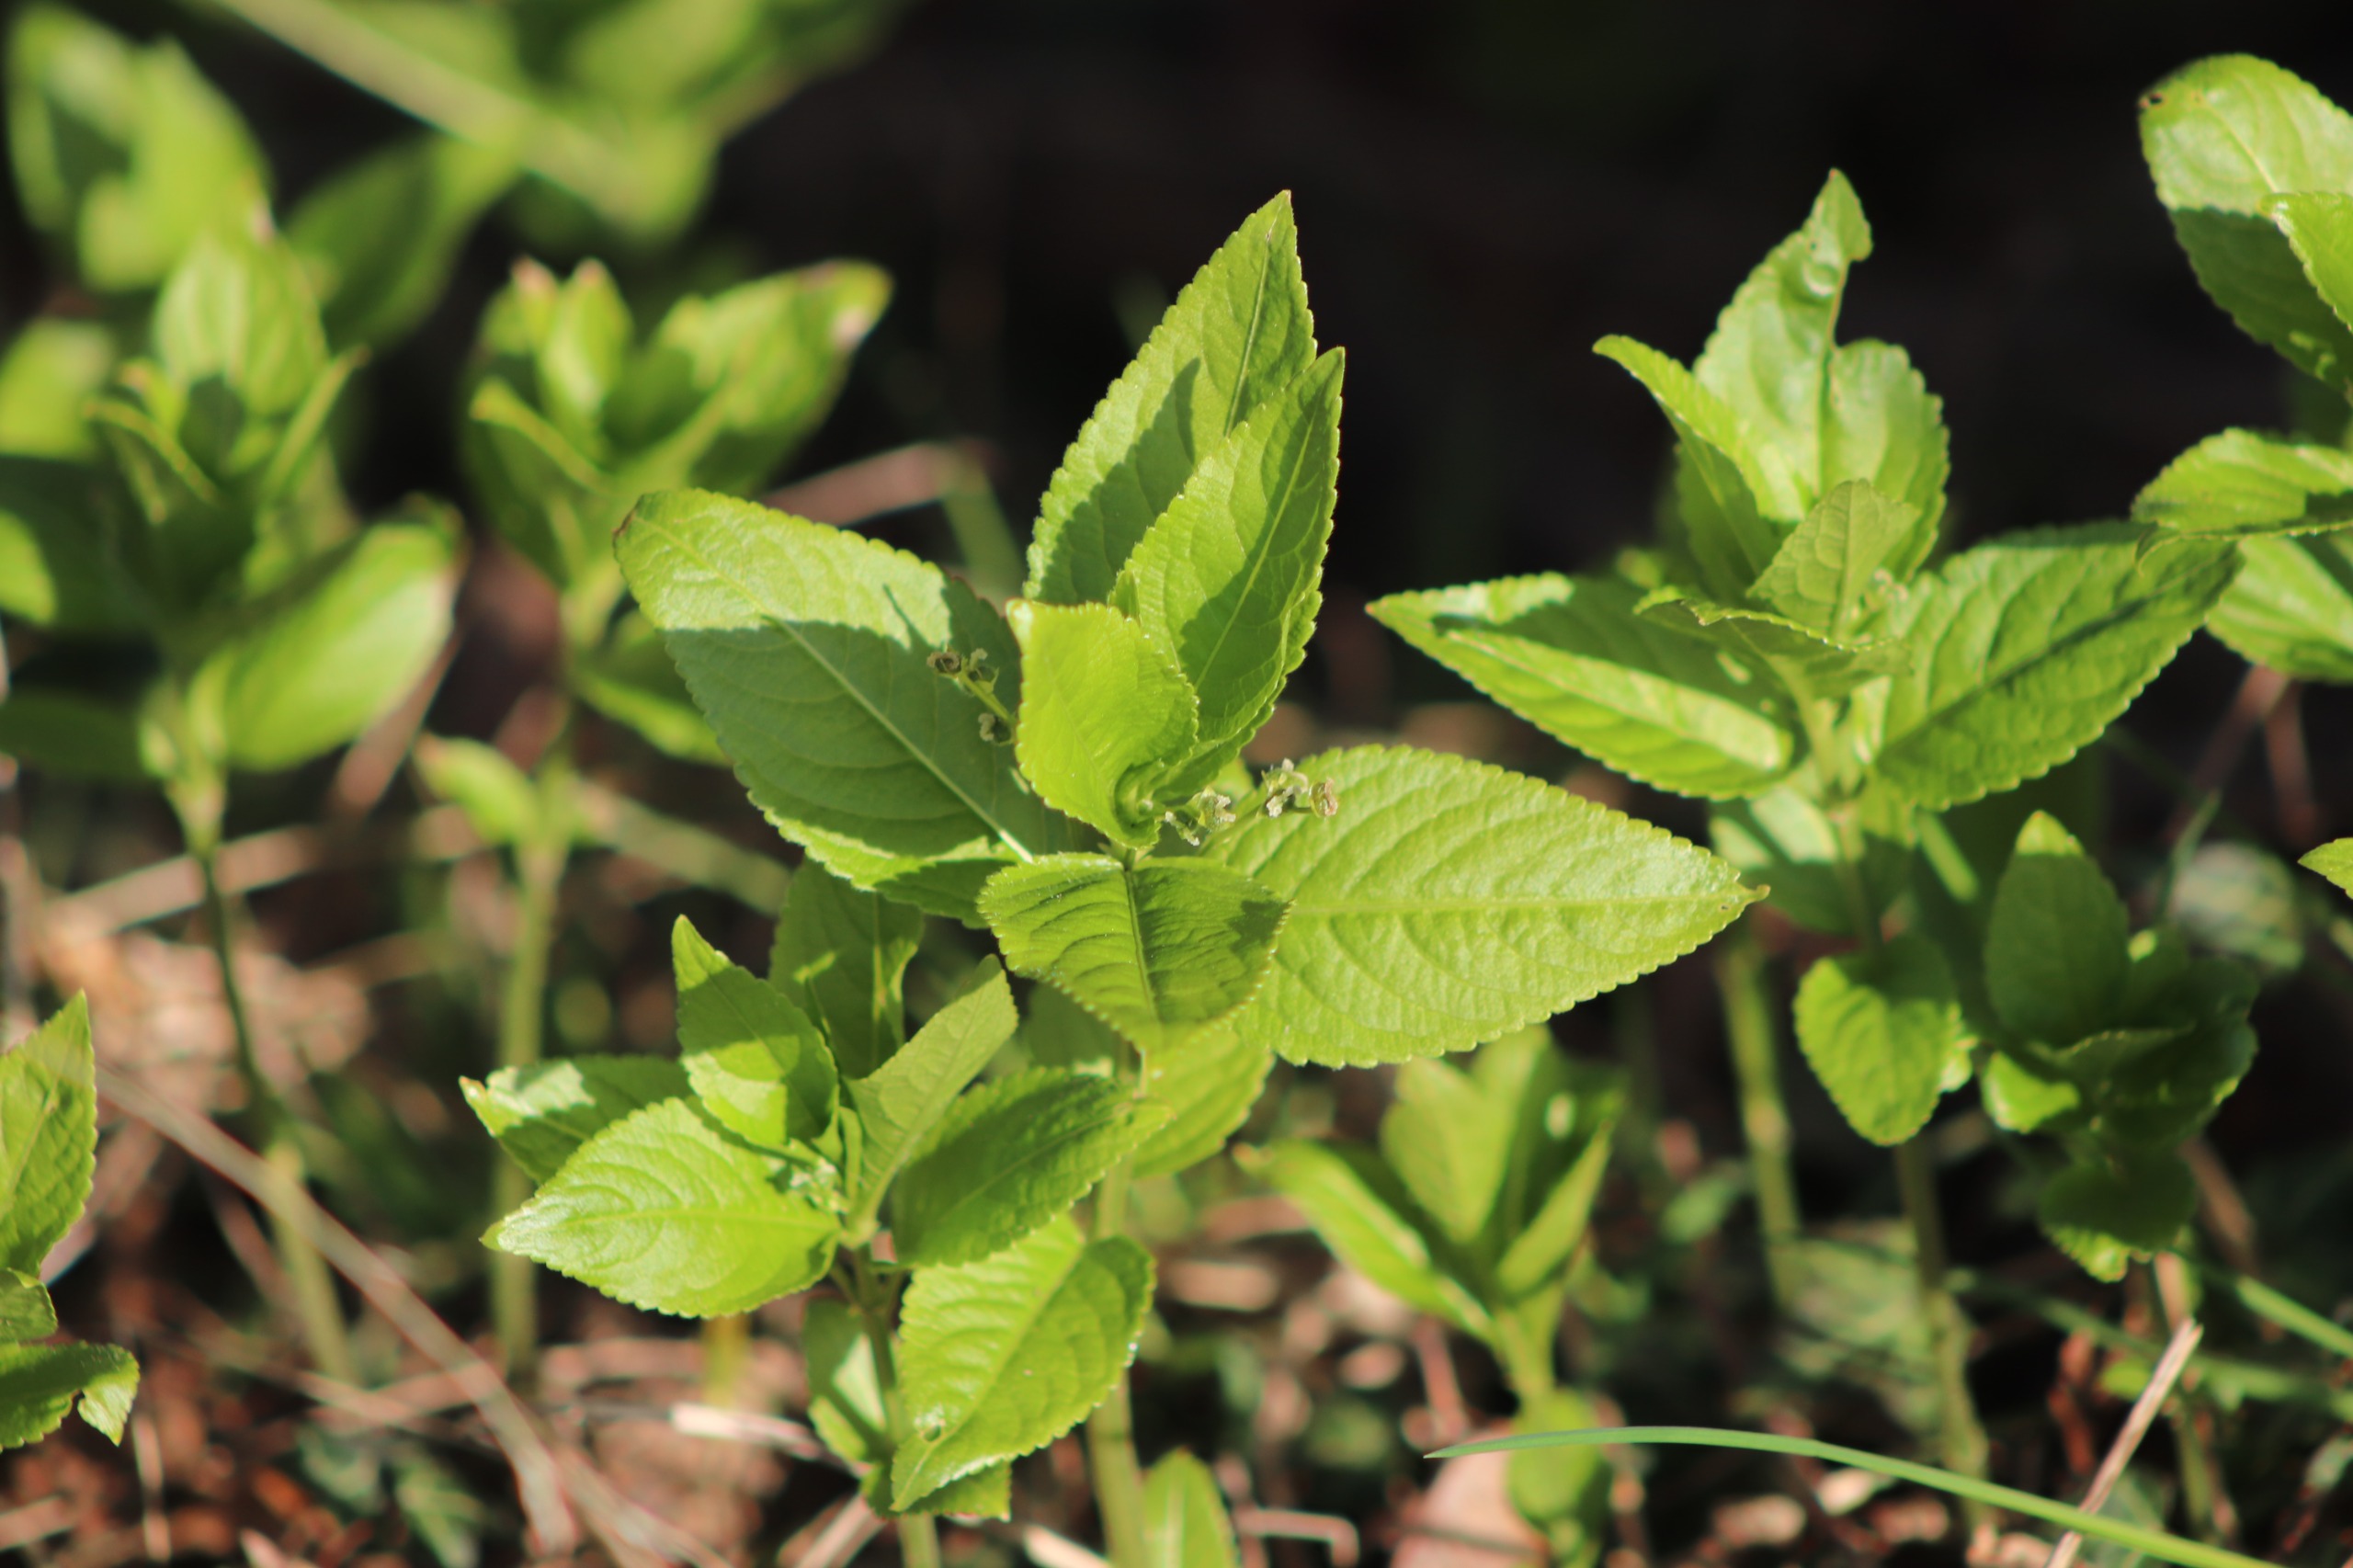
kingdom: Plantae
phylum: Tracheophyta
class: Magnoliopsida
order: Malpighiales
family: Euphorbiaceae
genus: Mercurialis
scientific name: Mercurialis perennis
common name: Almindelig bingelurt
